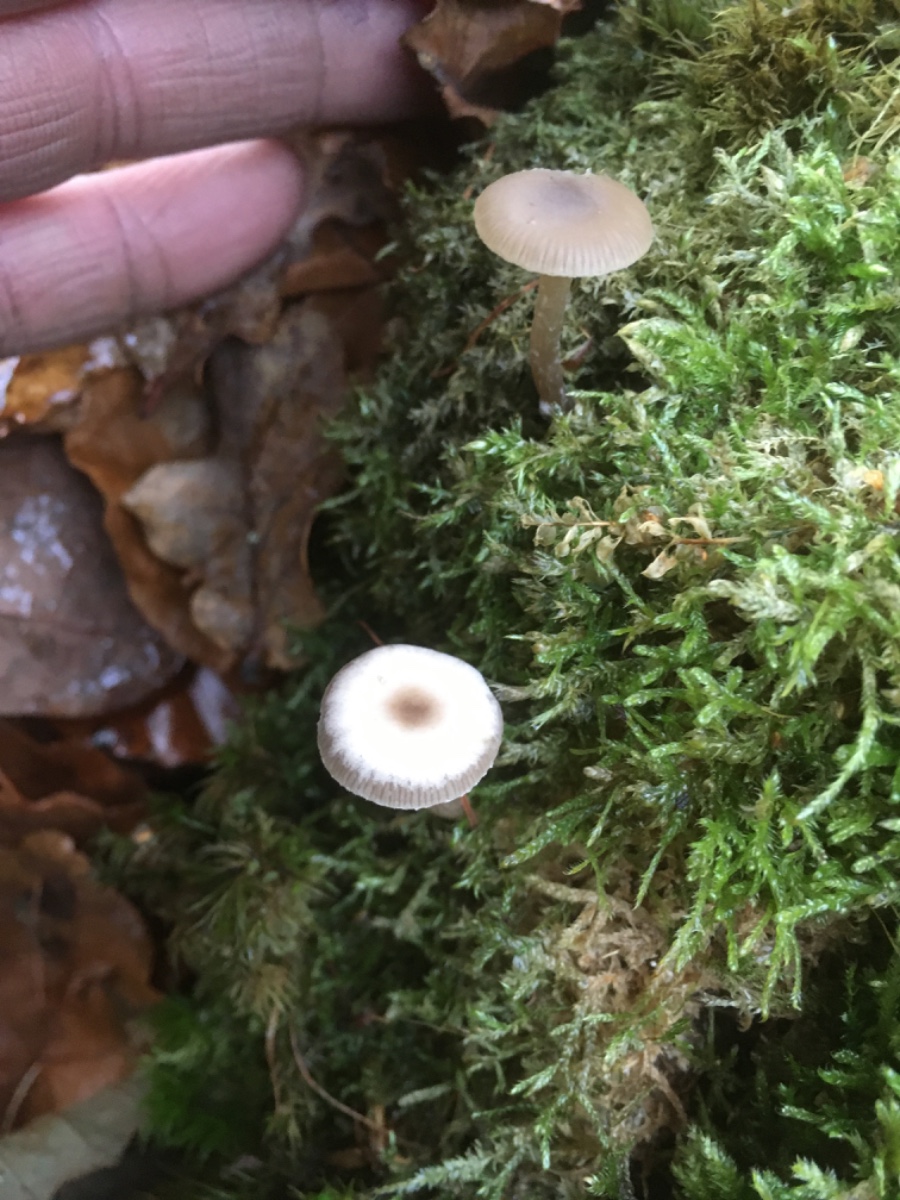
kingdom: Fungi
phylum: Basidiomycota
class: Agaricomycetes
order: Agaricales
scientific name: Agaricales
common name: champignonordenen
